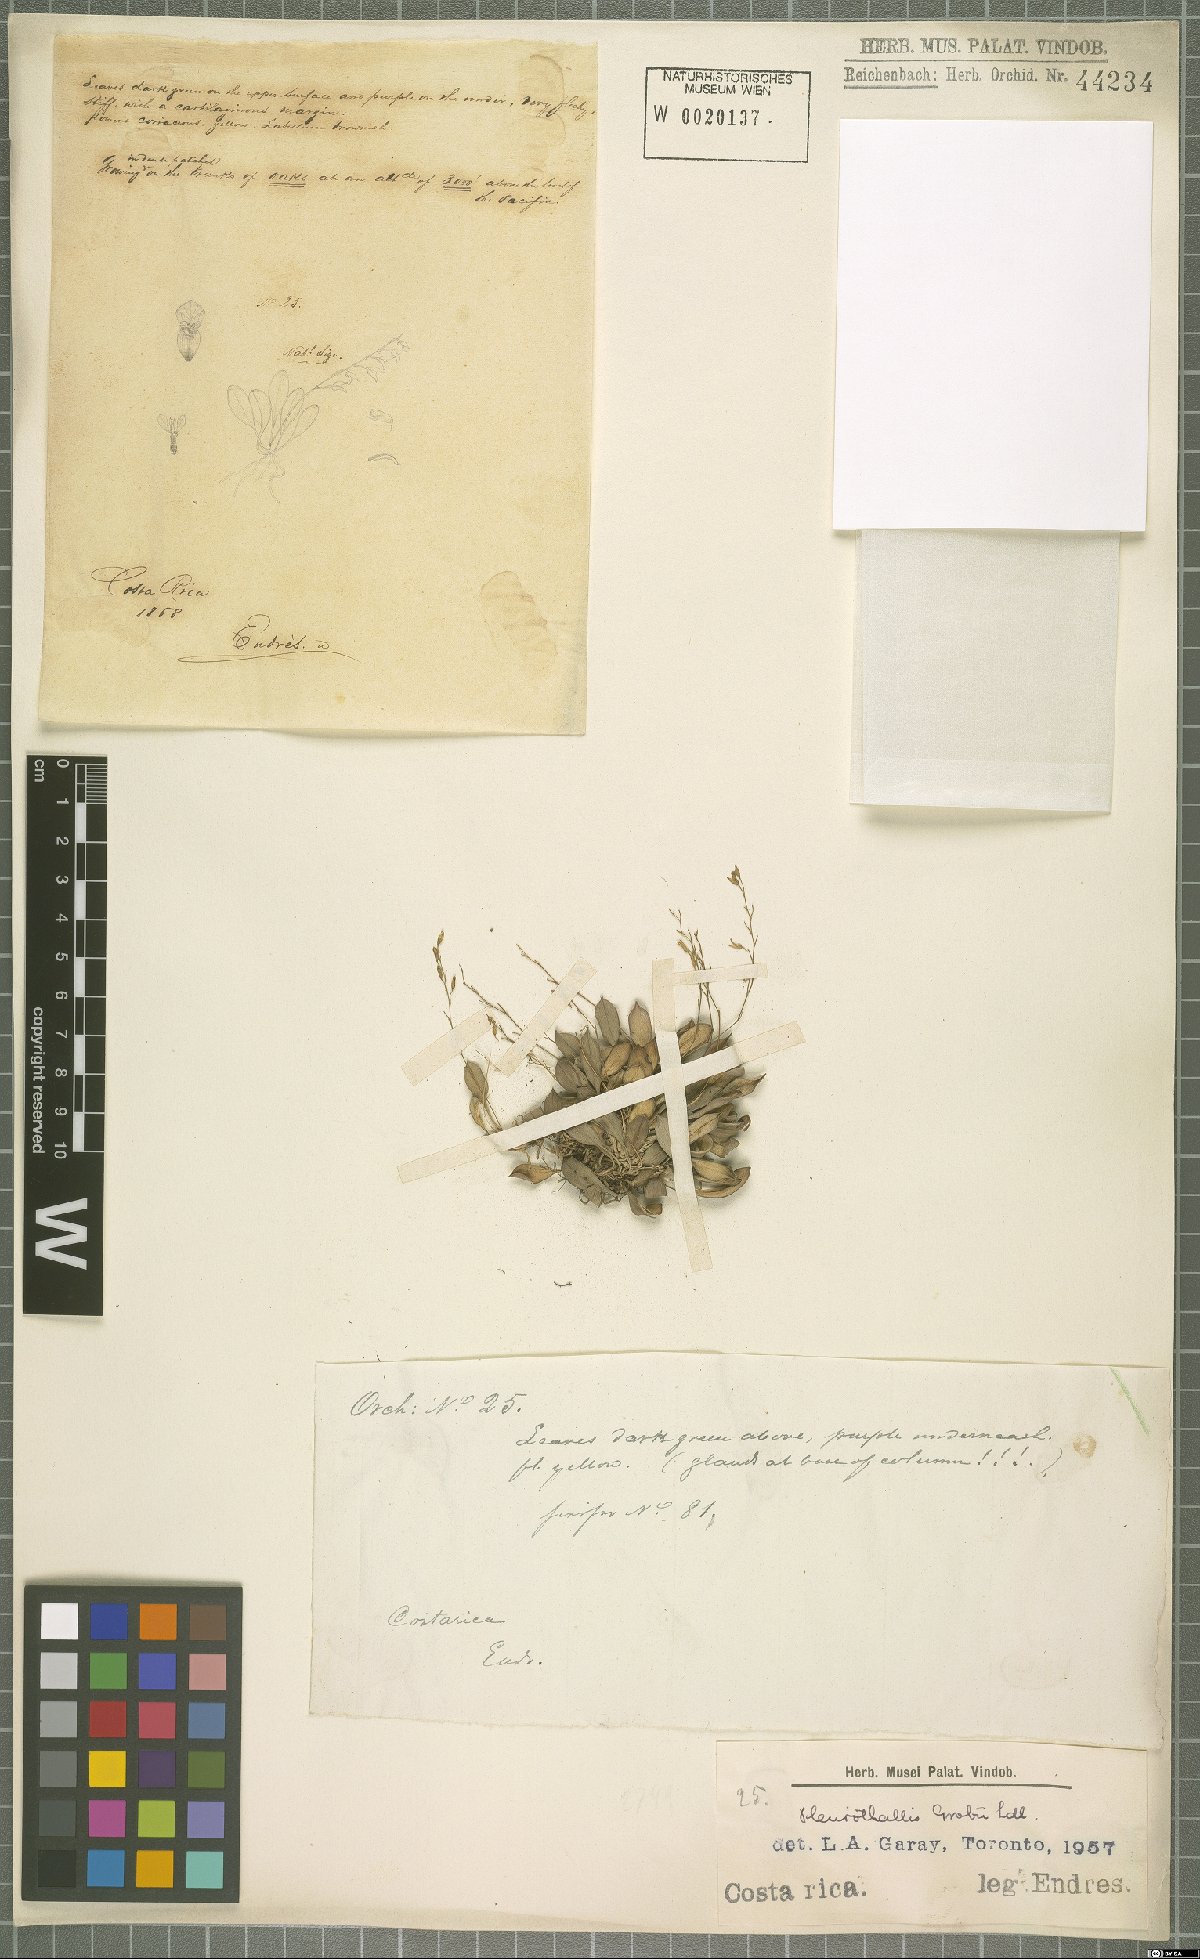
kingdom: Plantae
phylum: Tracheophyta
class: Liliopsida
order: Asparagales
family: Orchidaceae
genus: Specklinia
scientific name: Specklinia grobyi
